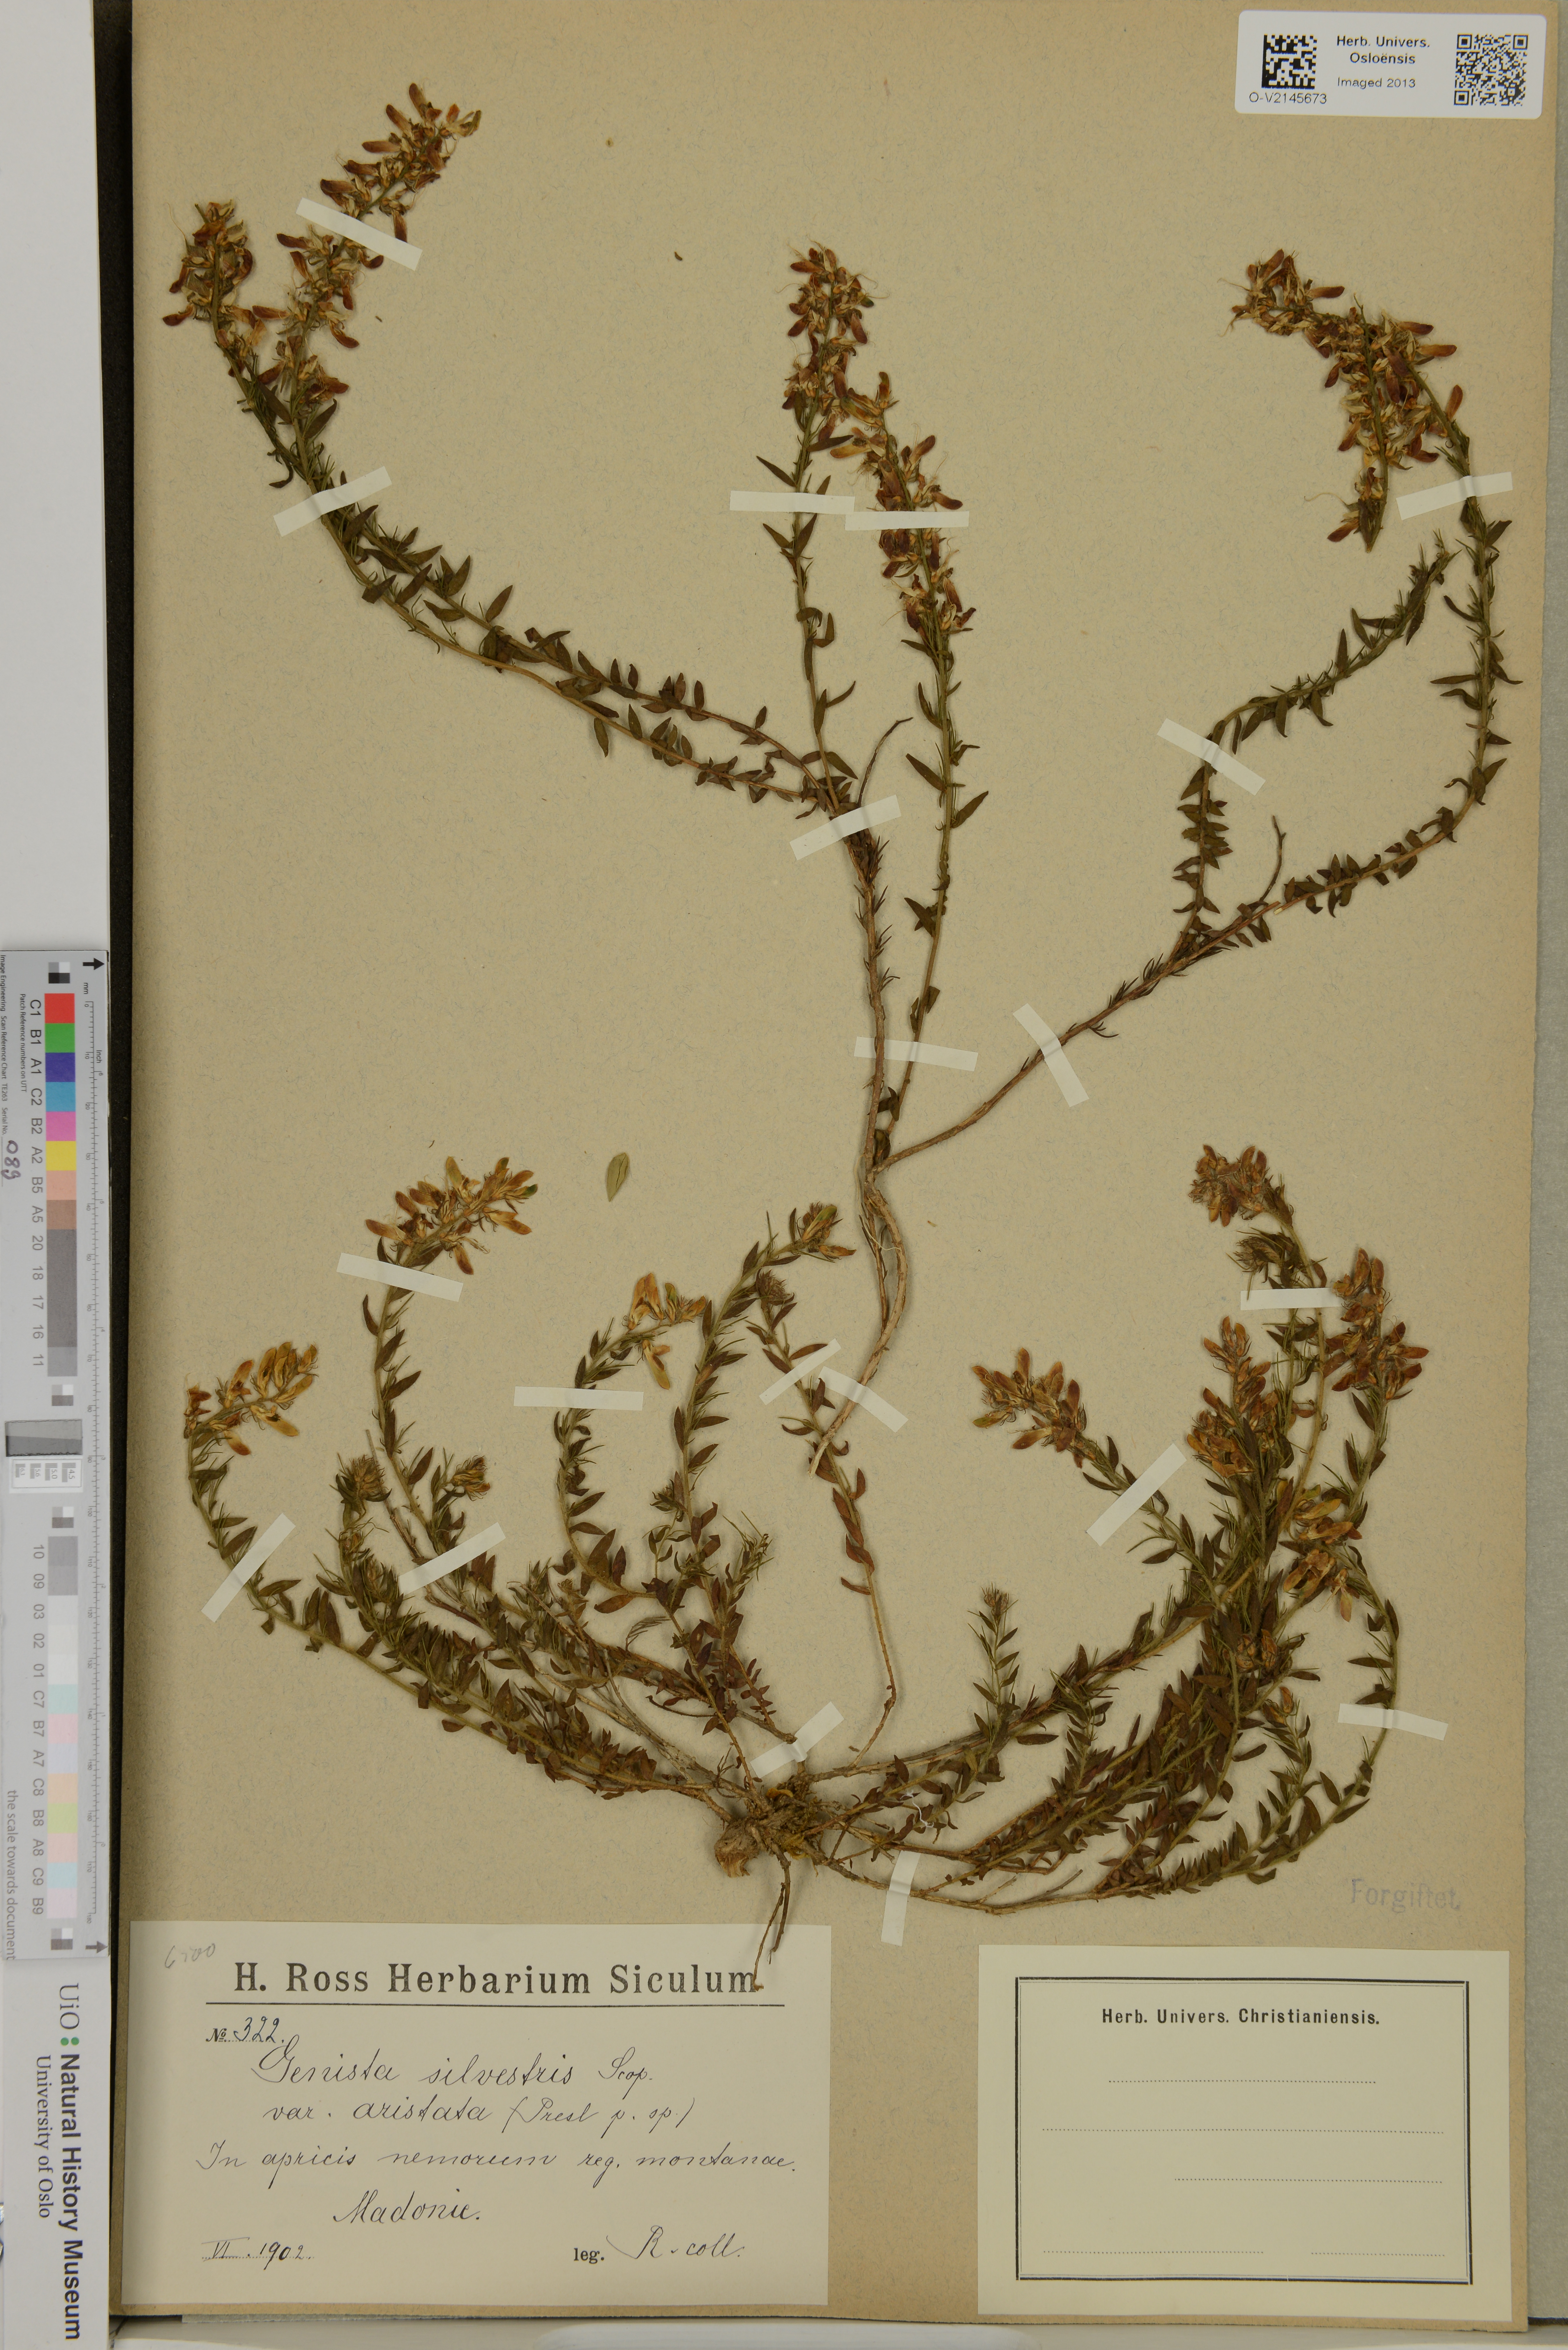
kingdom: Plantae
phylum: Tracheophyta
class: Magnoliopsida
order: Fabales
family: Fabaceae
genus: Genista
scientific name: Genista sylvestris
